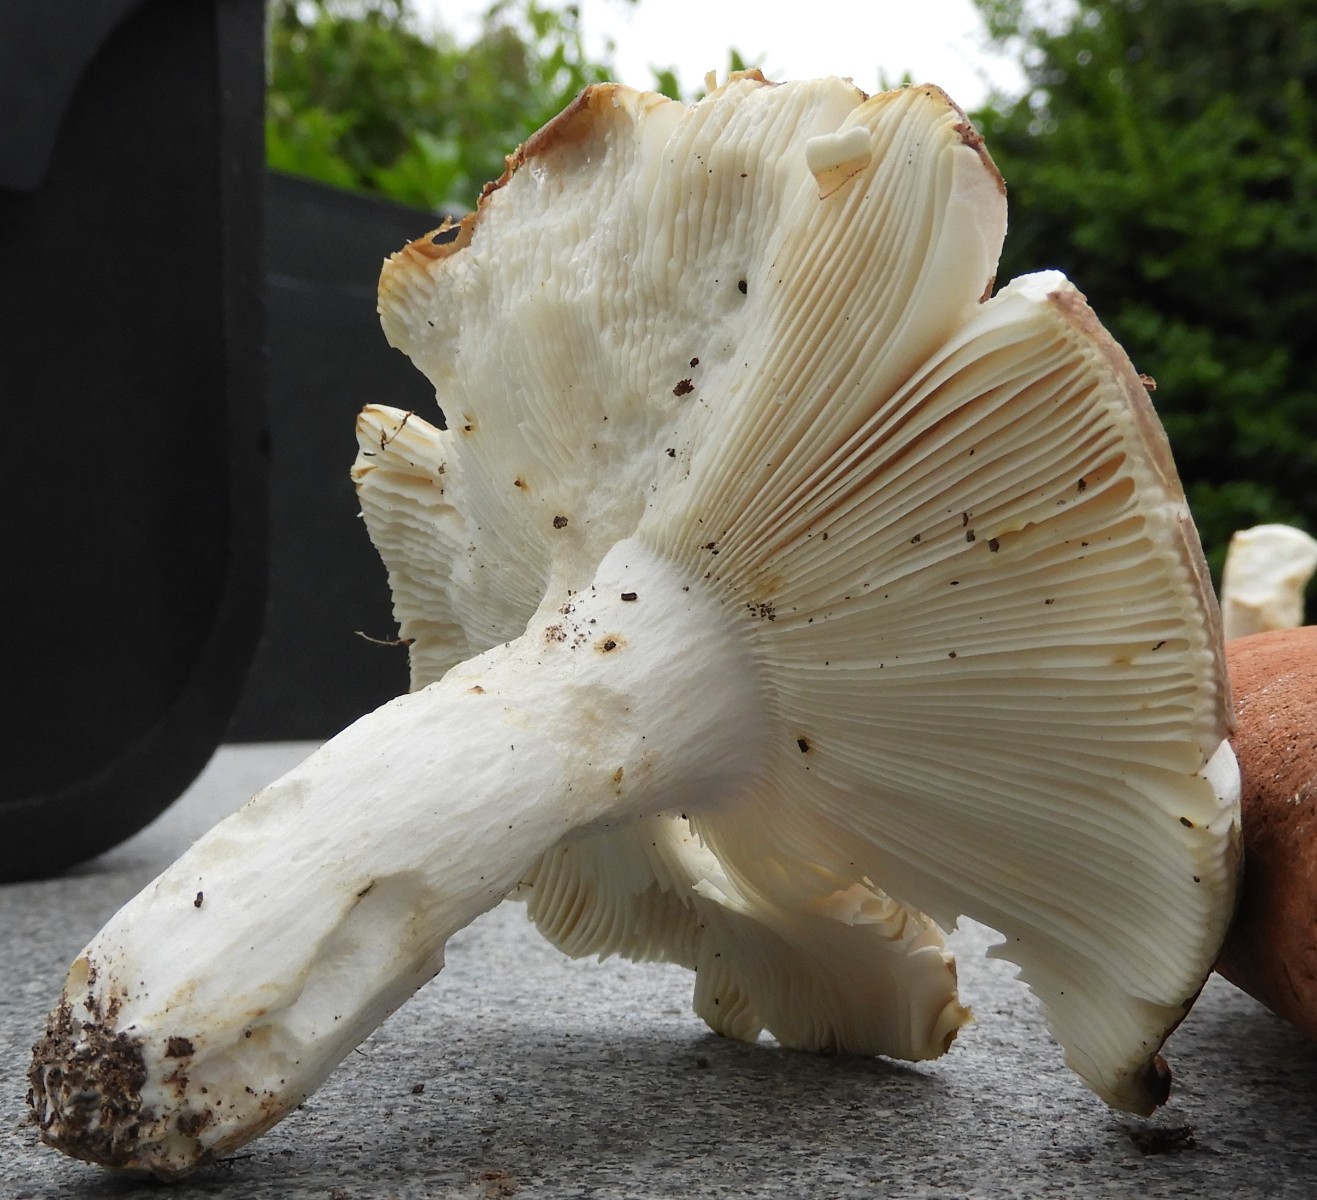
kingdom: Fungi
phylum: Basidiomycota
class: Agaricomycetes
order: Russulales
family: Russulaceae
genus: Russula
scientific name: Russula heterophylla
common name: gaffelbladet skørhat
